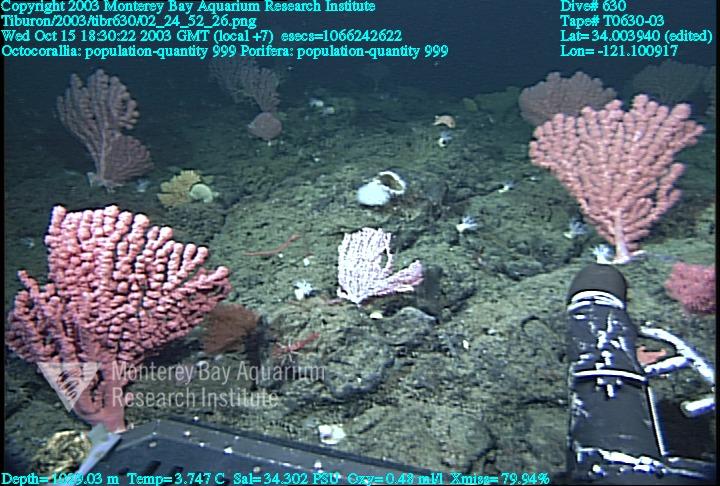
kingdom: Animalia
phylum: Porifera
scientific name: Porifera
